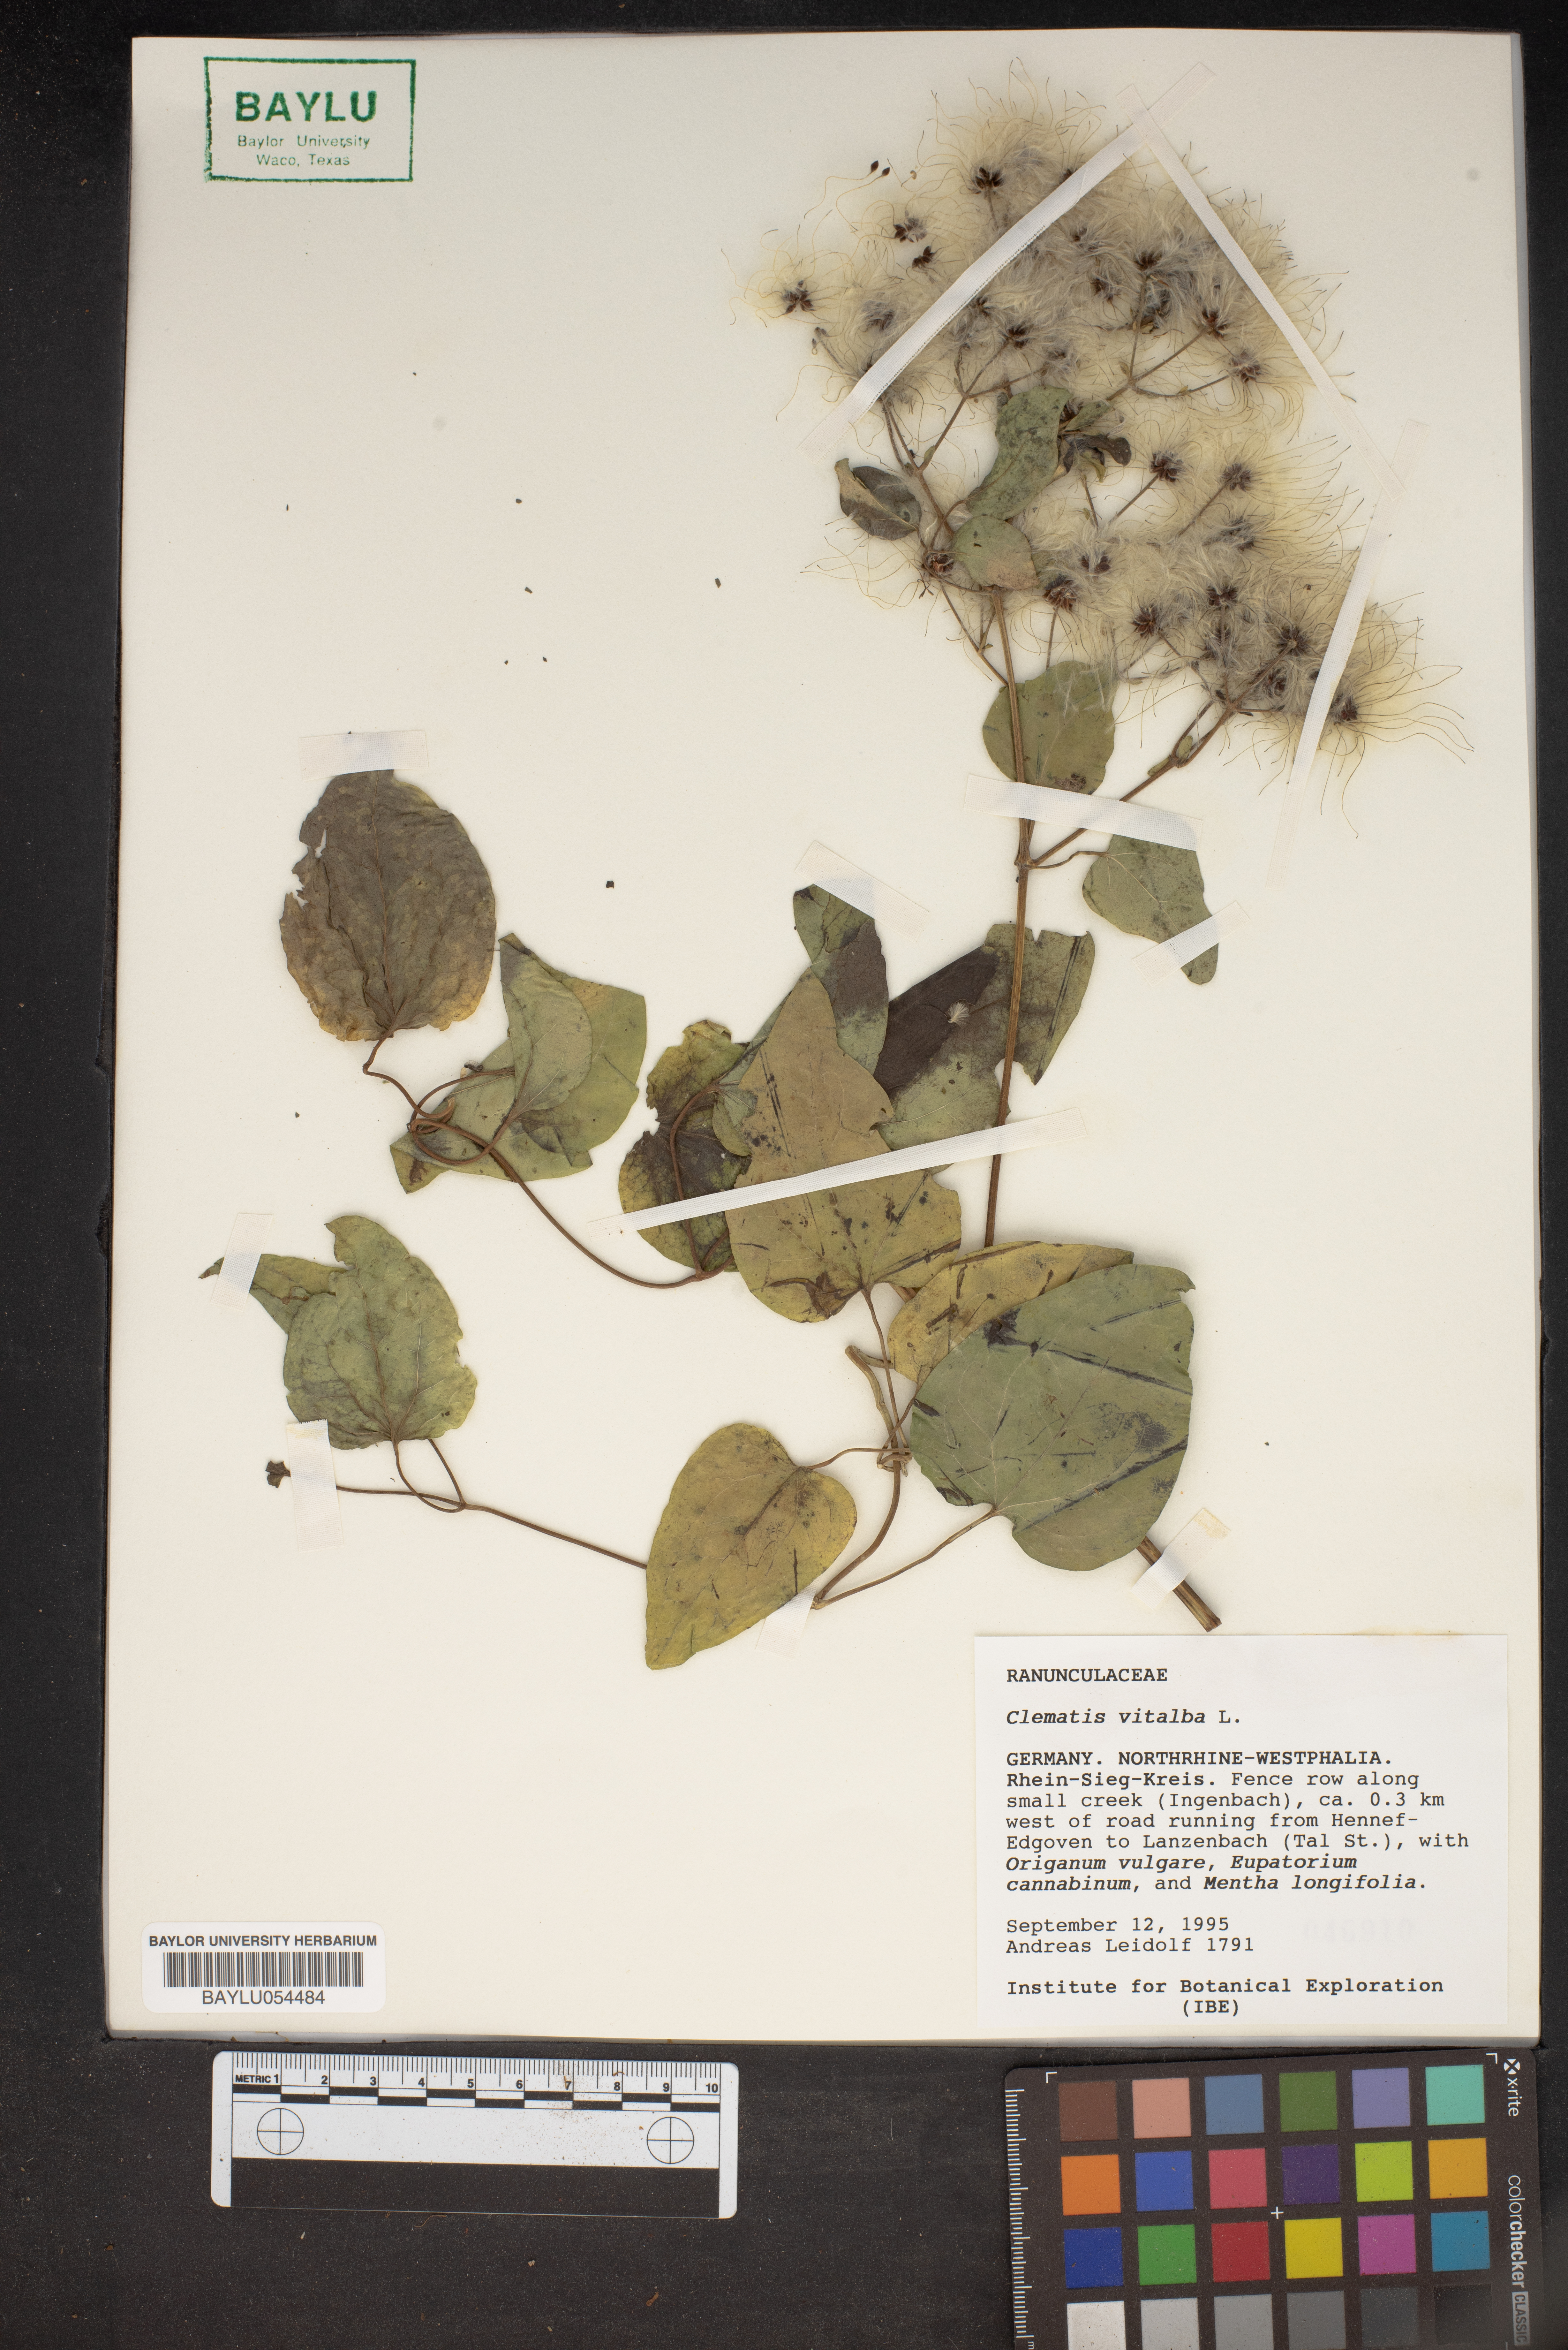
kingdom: Plantae
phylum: Tracheophyta
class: Magnoliopsida
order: Ranunculales
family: Ranunculaceae
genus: Clematis
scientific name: Clematis vitalba
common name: Evergreen clematis
